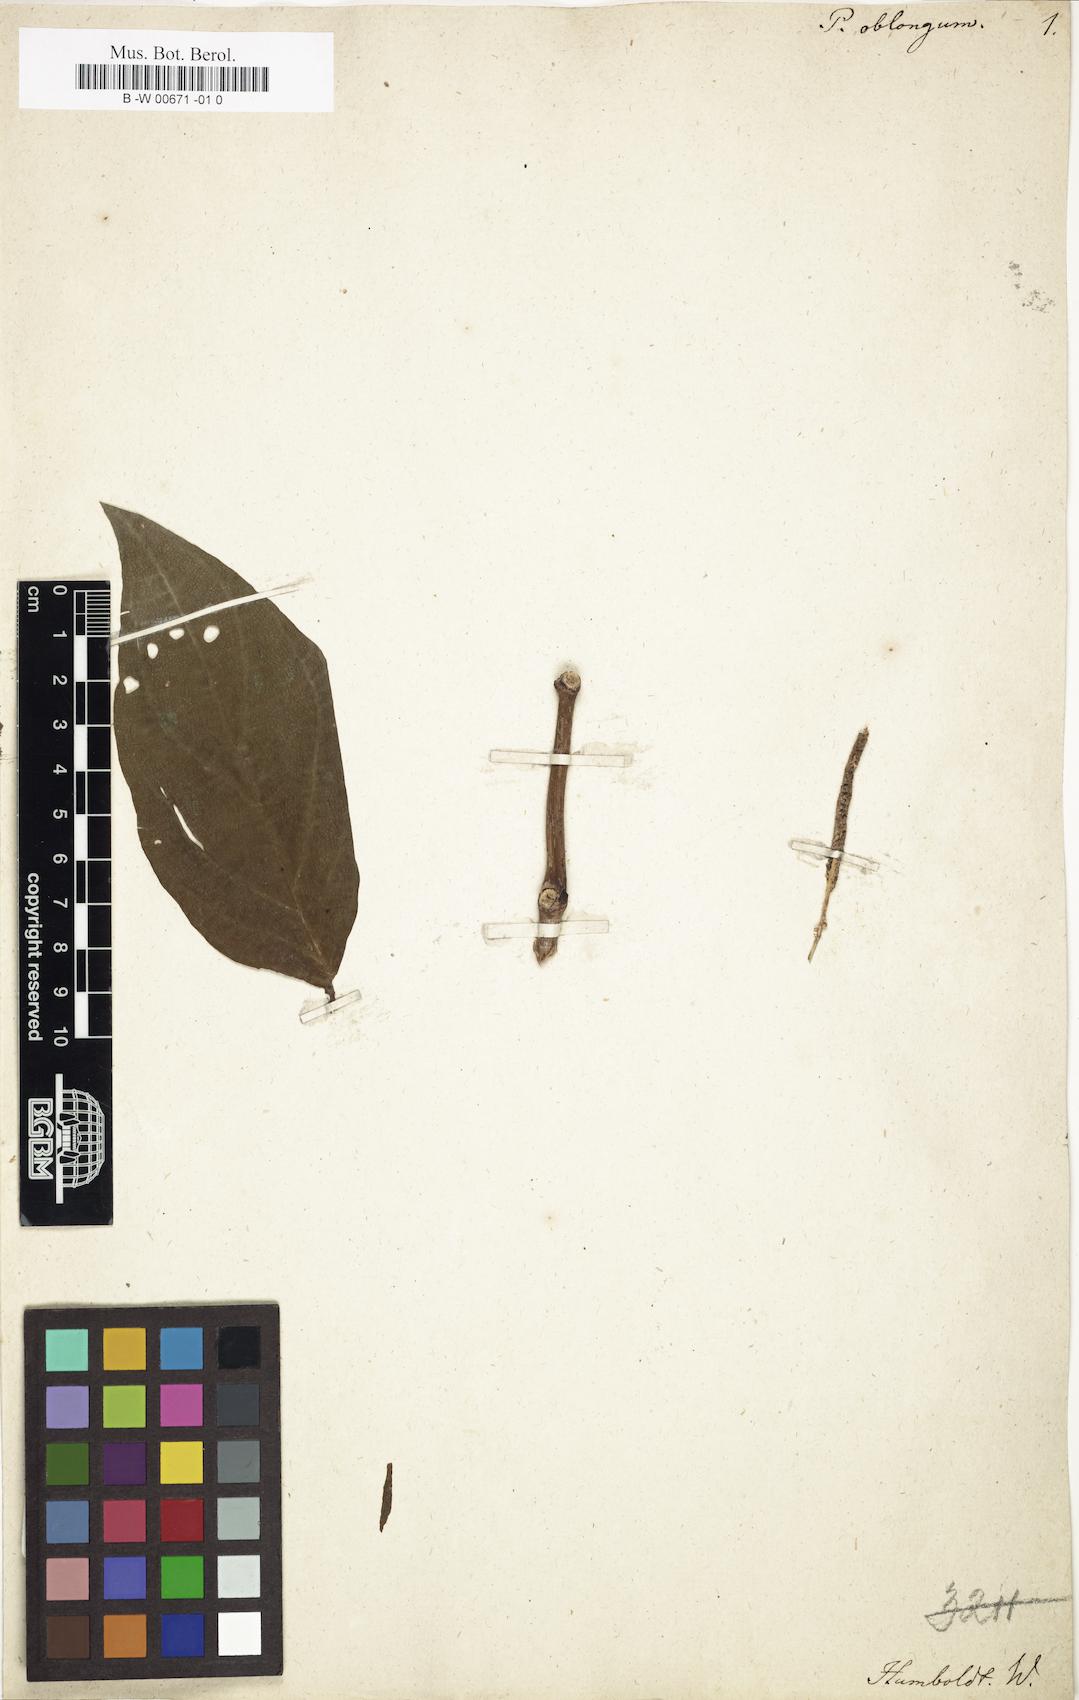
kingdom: Plantae
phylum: Tracheophyta
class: Magnoliopsida
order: Piperales
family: Piperaceae
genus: Piper
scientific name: Piper oblongum
